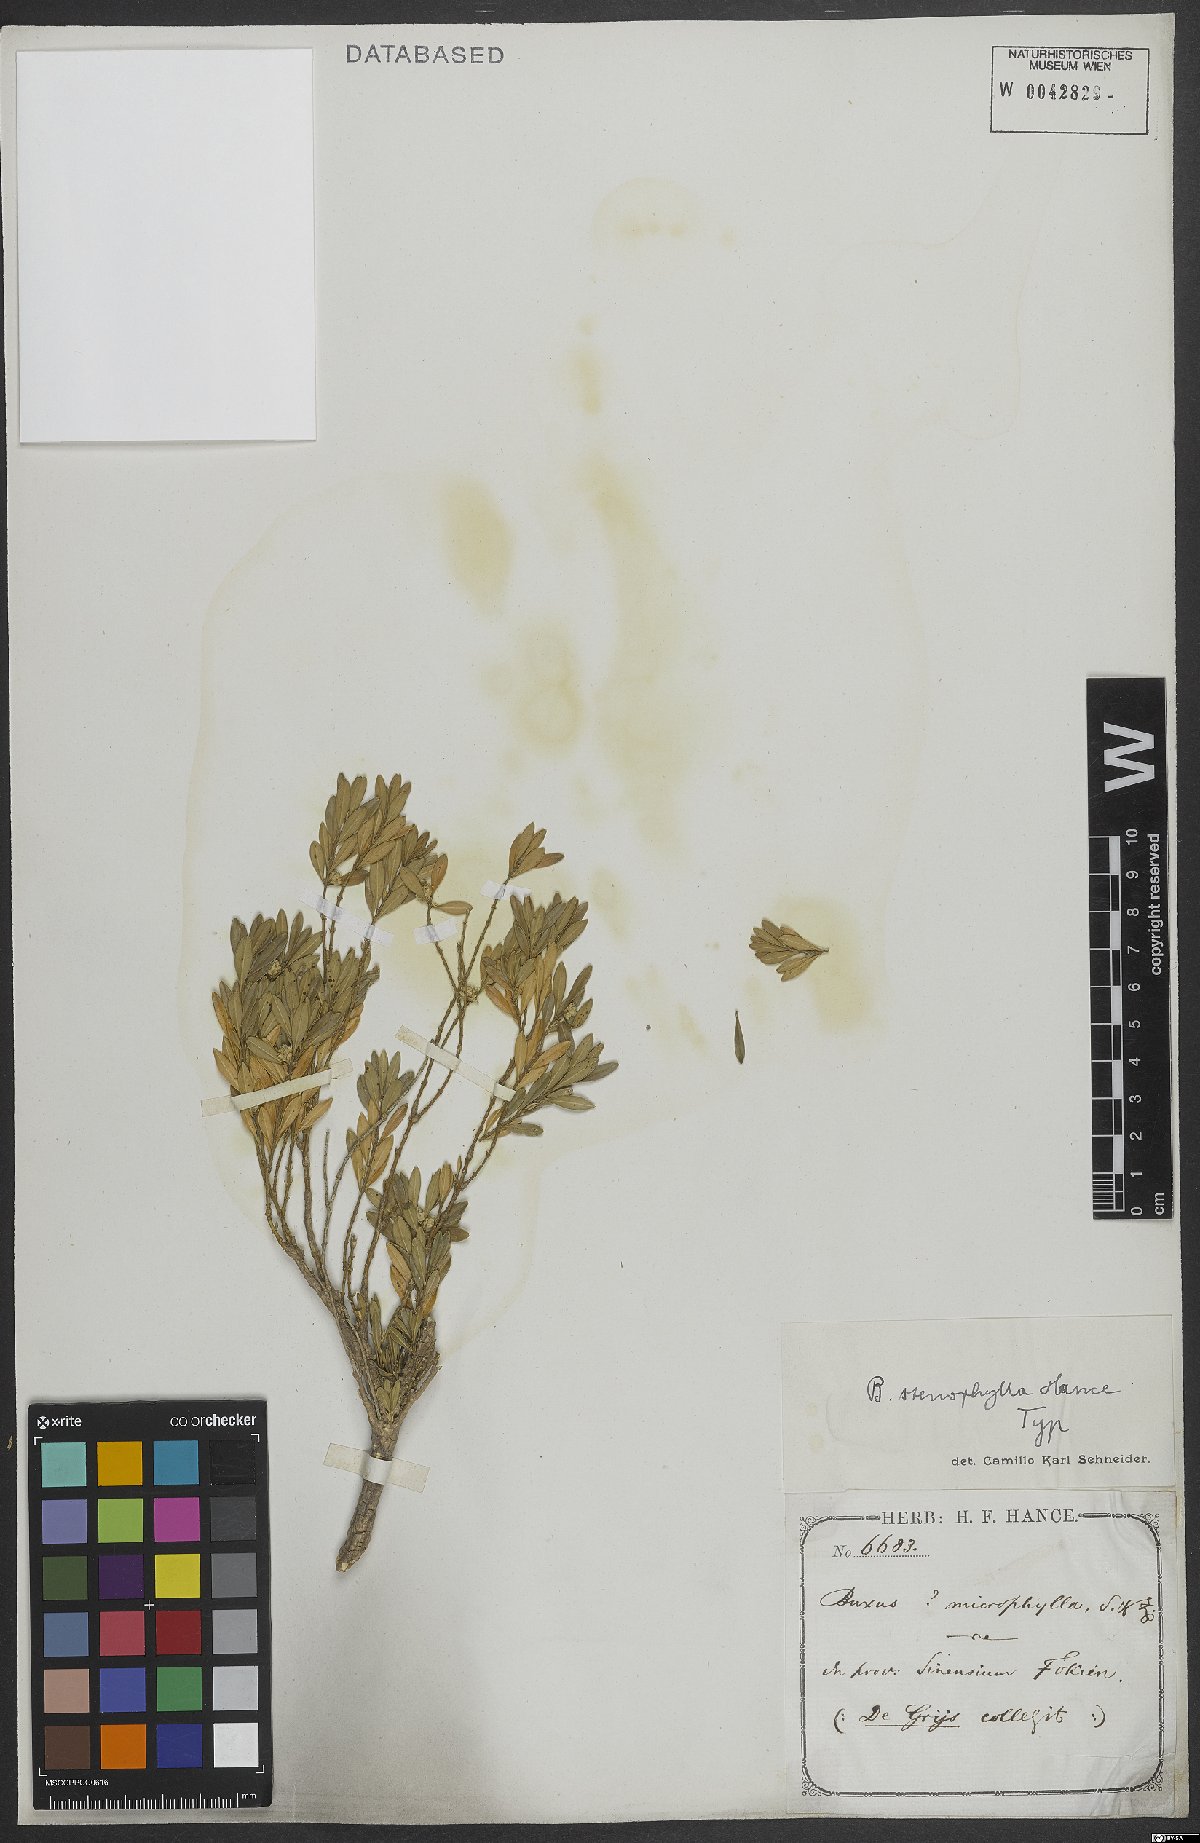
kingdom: Plantae
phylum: Tracheophyta
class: Magnoliopsida
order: Buxales
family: Buxaceae
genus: Buxus
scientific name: Buxus stenophylla
